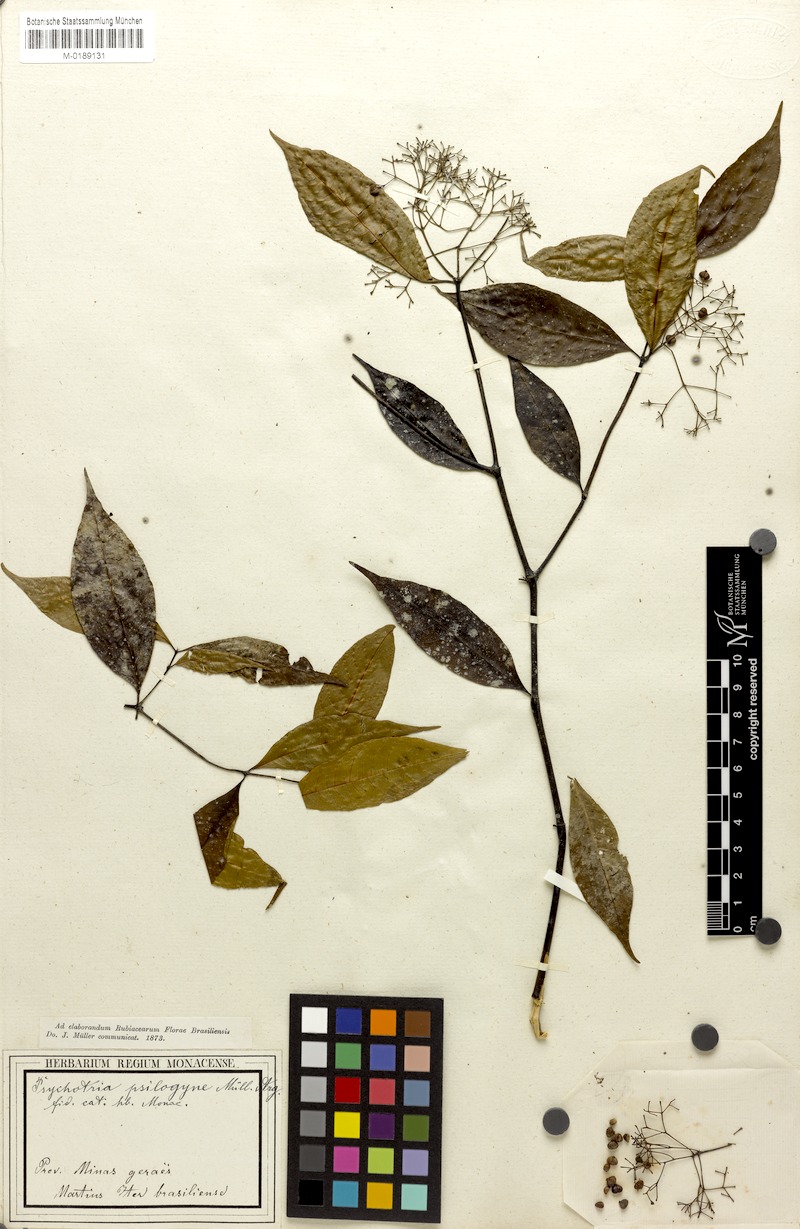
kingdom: Plantae
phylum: Tracheophyta
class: Magnoliopsida
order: Gentianales
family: Rubiaceae
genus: Psychotria
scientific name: Psychotria leiocarpa
